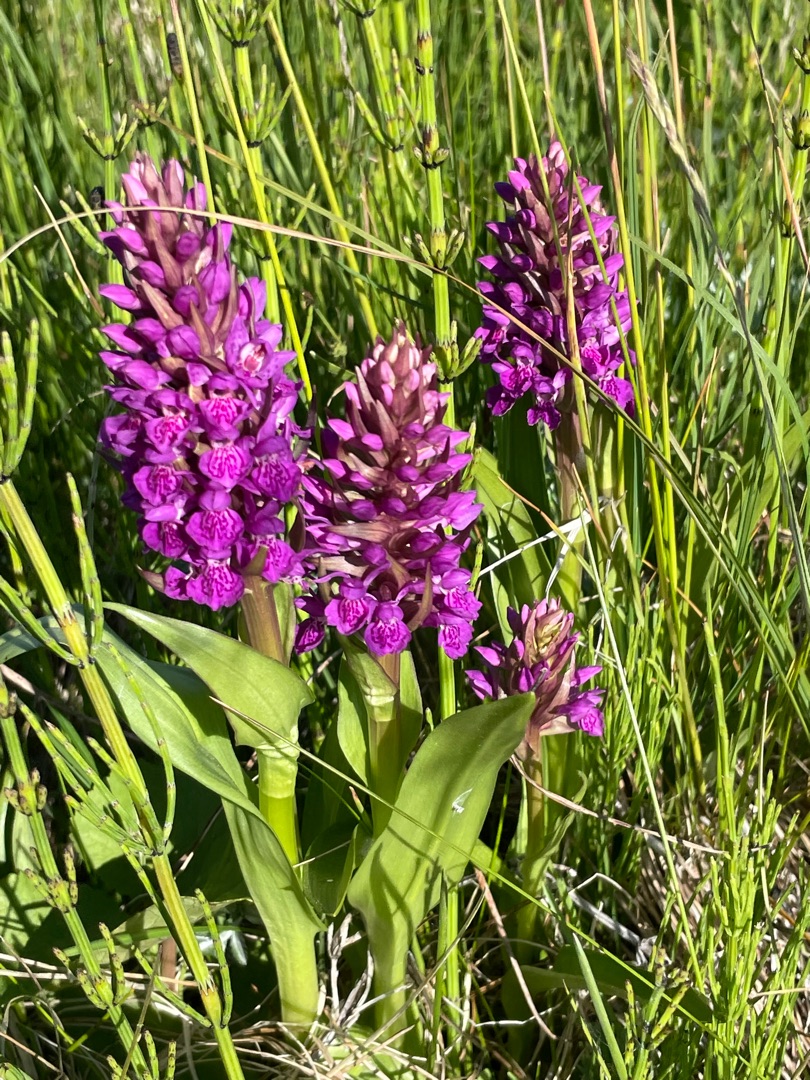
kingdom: Plantae
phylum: Tracheophyta
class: Liliopsida
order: Asparagales
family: Orchidaceae
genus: Dactylorhiza
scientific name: Dactylorhiza majalis
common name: Purpur-gøgeurt
